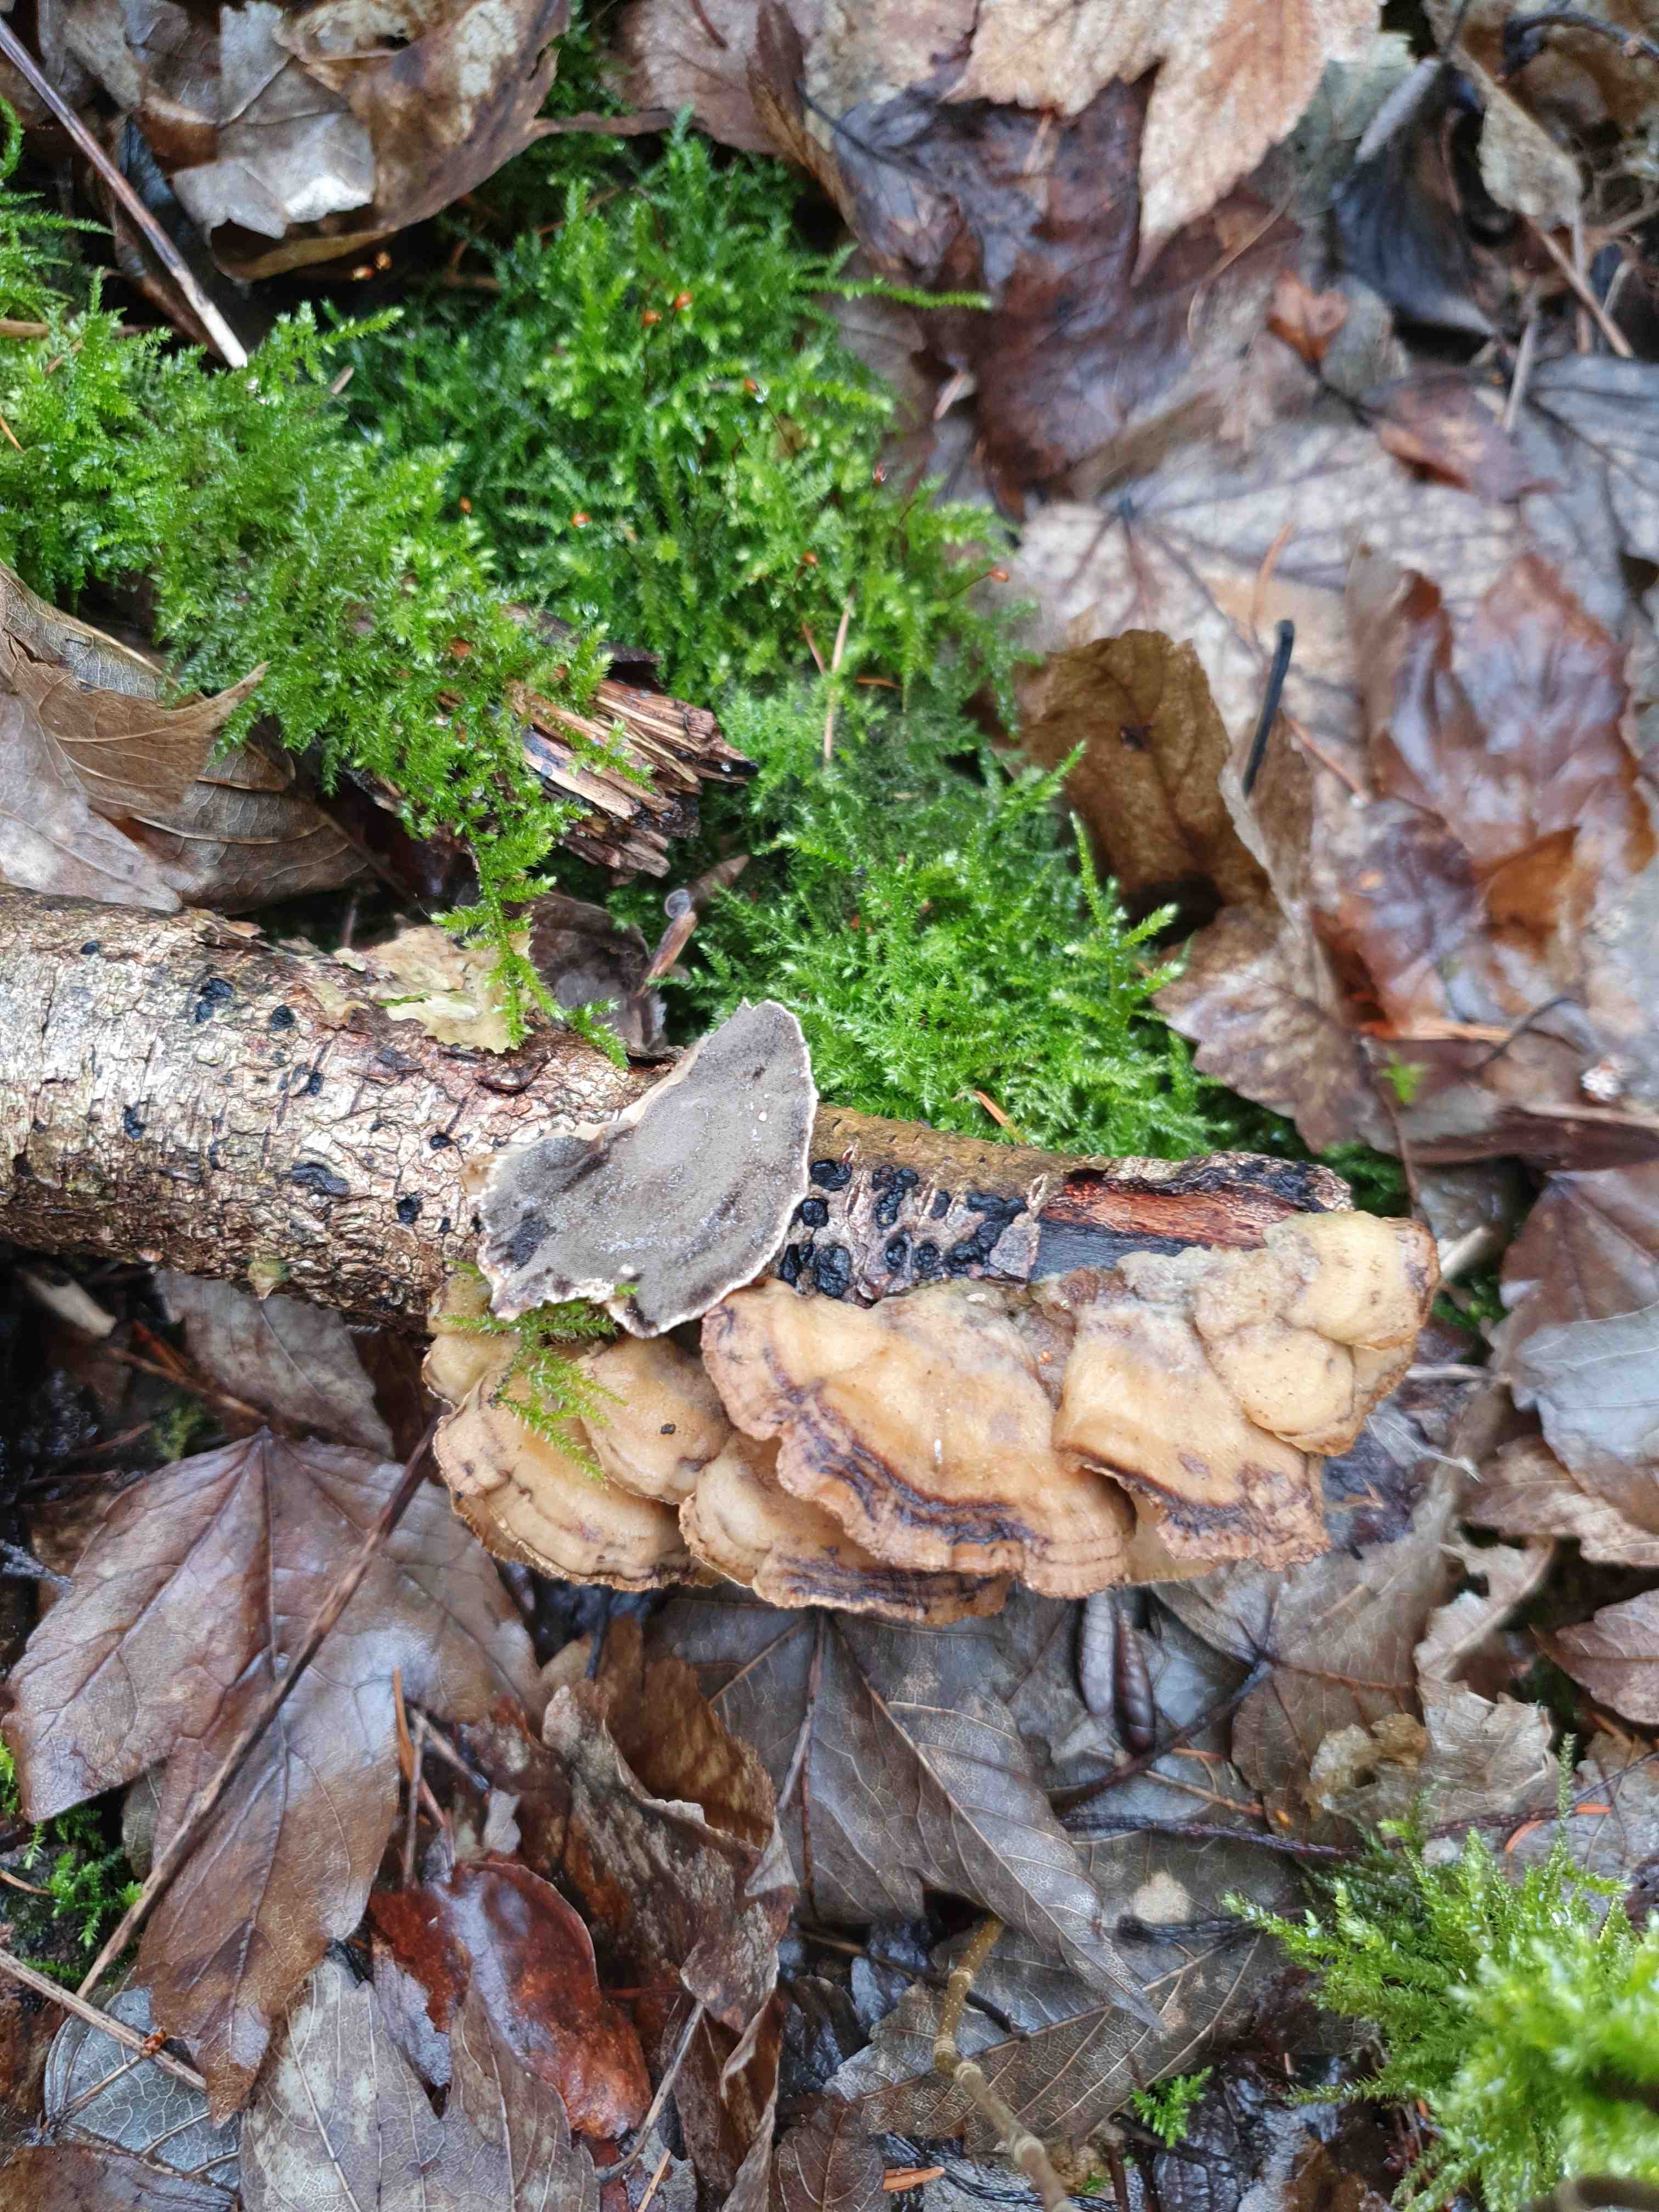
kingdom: Fungi
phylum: Basidiomycota
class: Agaricomycetes
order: Polyporales
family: Phanerochaetaceae
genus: Bjerkandera
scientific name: Bjerkandera adusta
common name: sveden sodporesvamp
